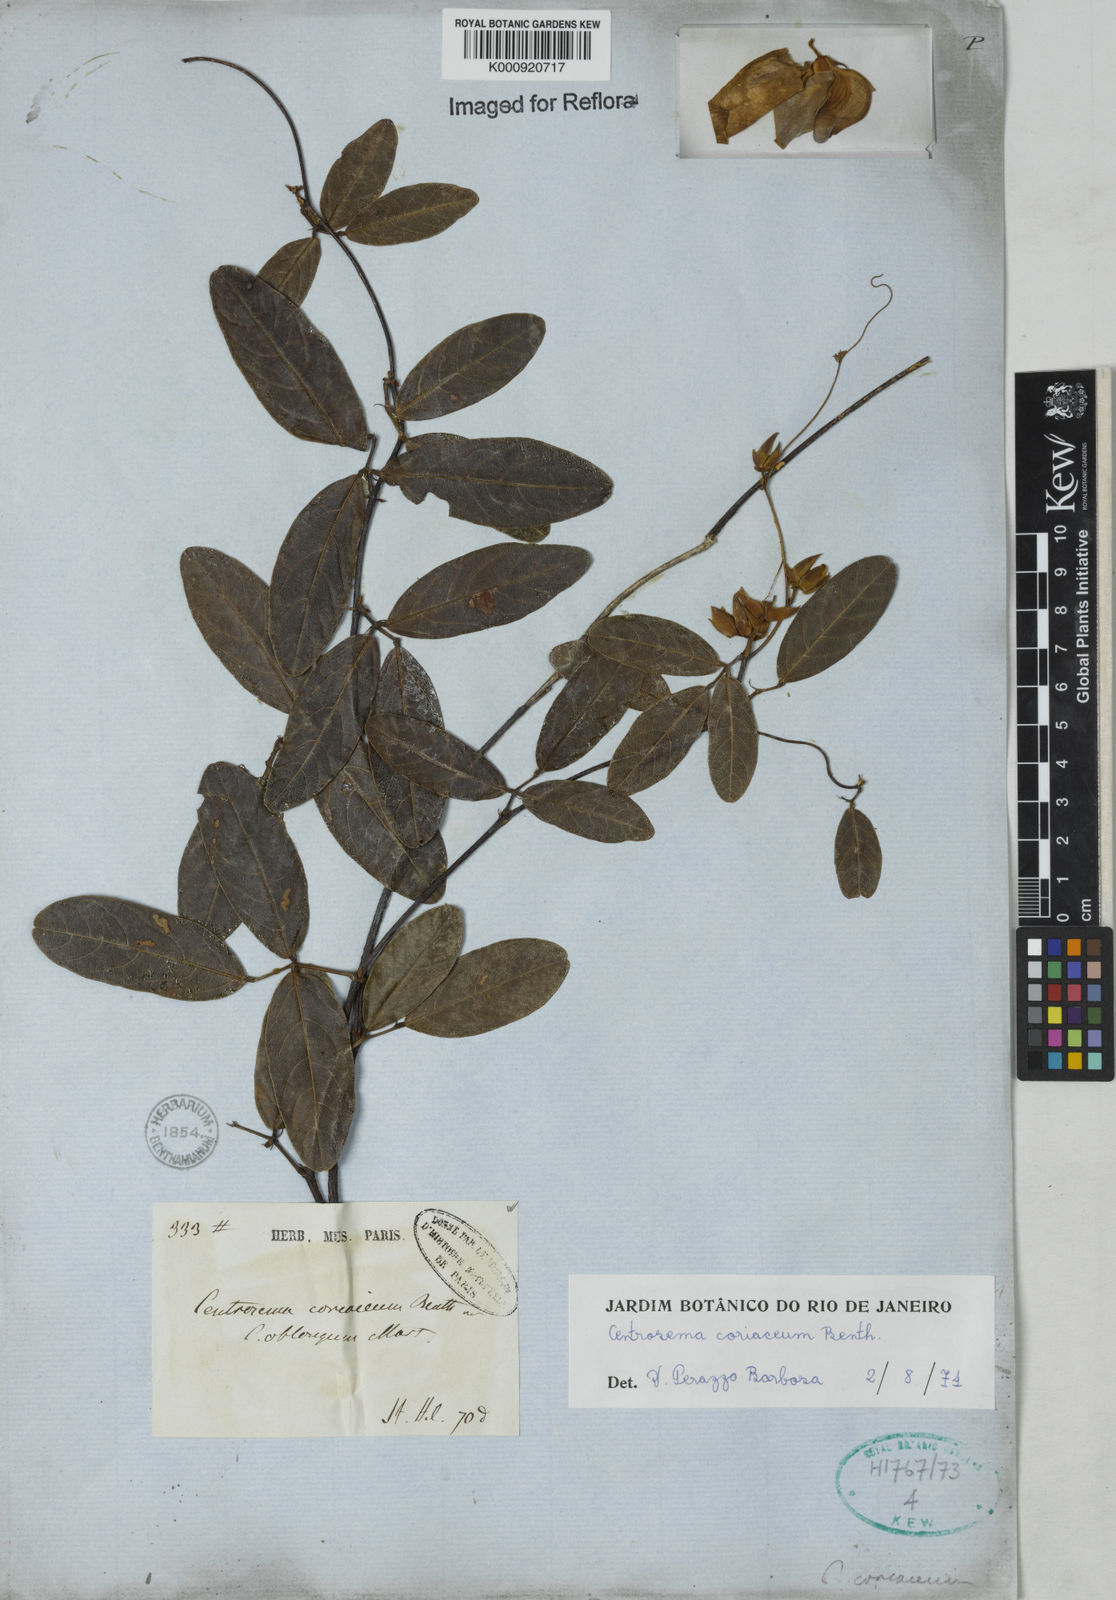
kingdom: Plantae
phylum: Tracheophyta
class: Magnoliopsida
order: Fabales
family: Fabaceae
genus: Centrosema
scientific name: Centrosema coriaceum
